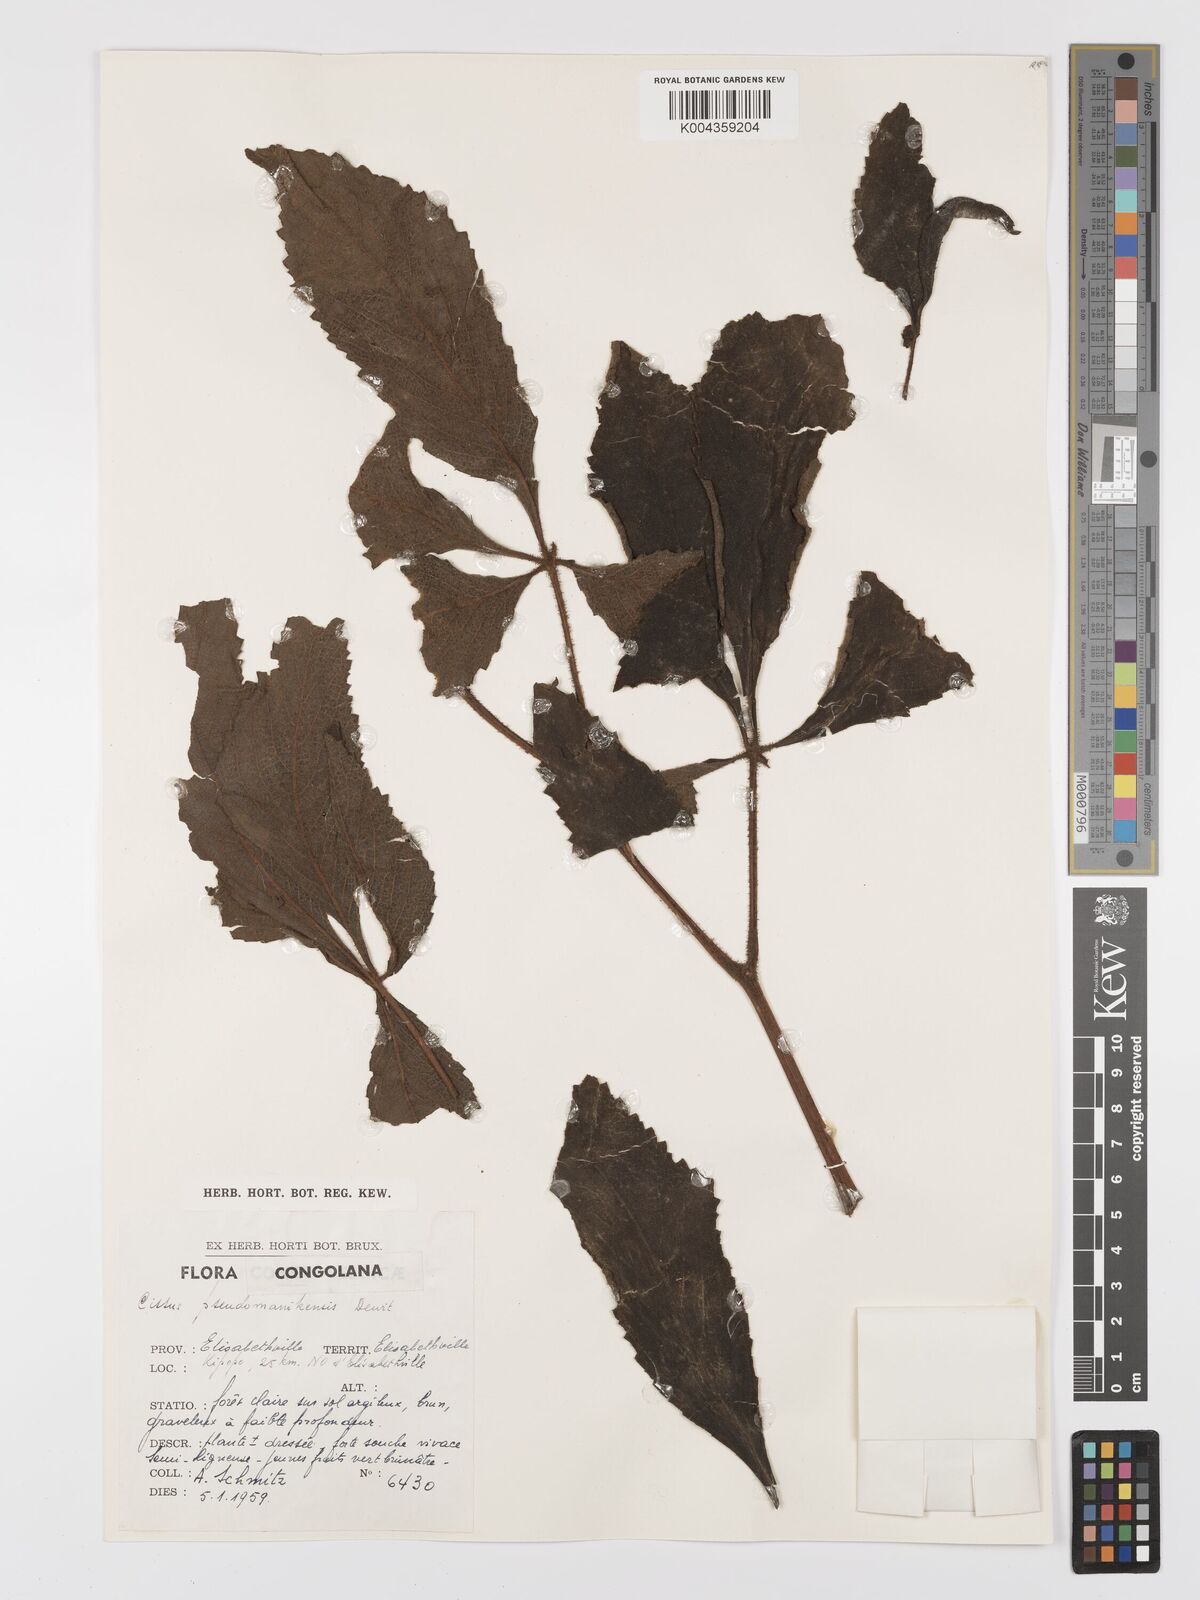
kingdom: Plantae
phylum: Tracheophyta
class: Magnoliopsida
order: Vitales
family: Vitaceae
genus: Cyphostemma
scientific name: Cyphostemma manikense
